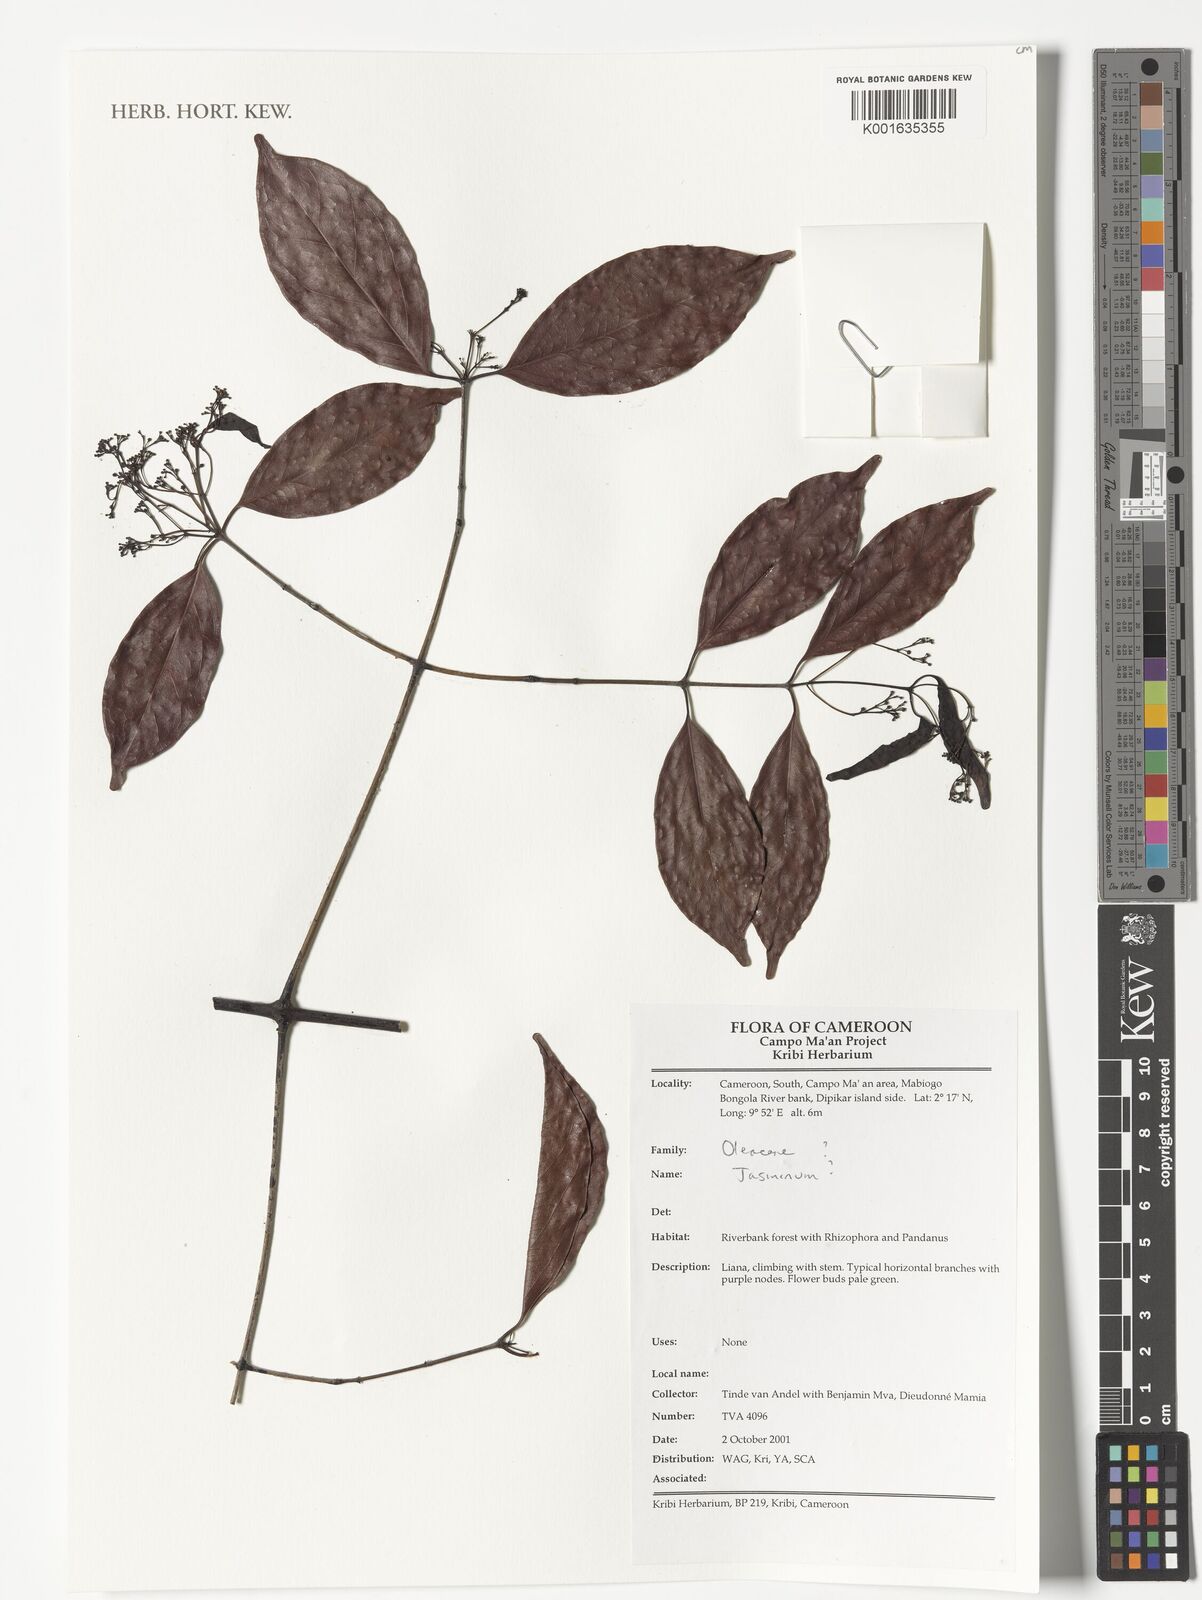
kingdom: Plantae
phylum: Tracheophyta
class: Magnoliopsida
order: Lamiales
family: Oleaceae
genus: Jasminum
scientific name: Jasminum
